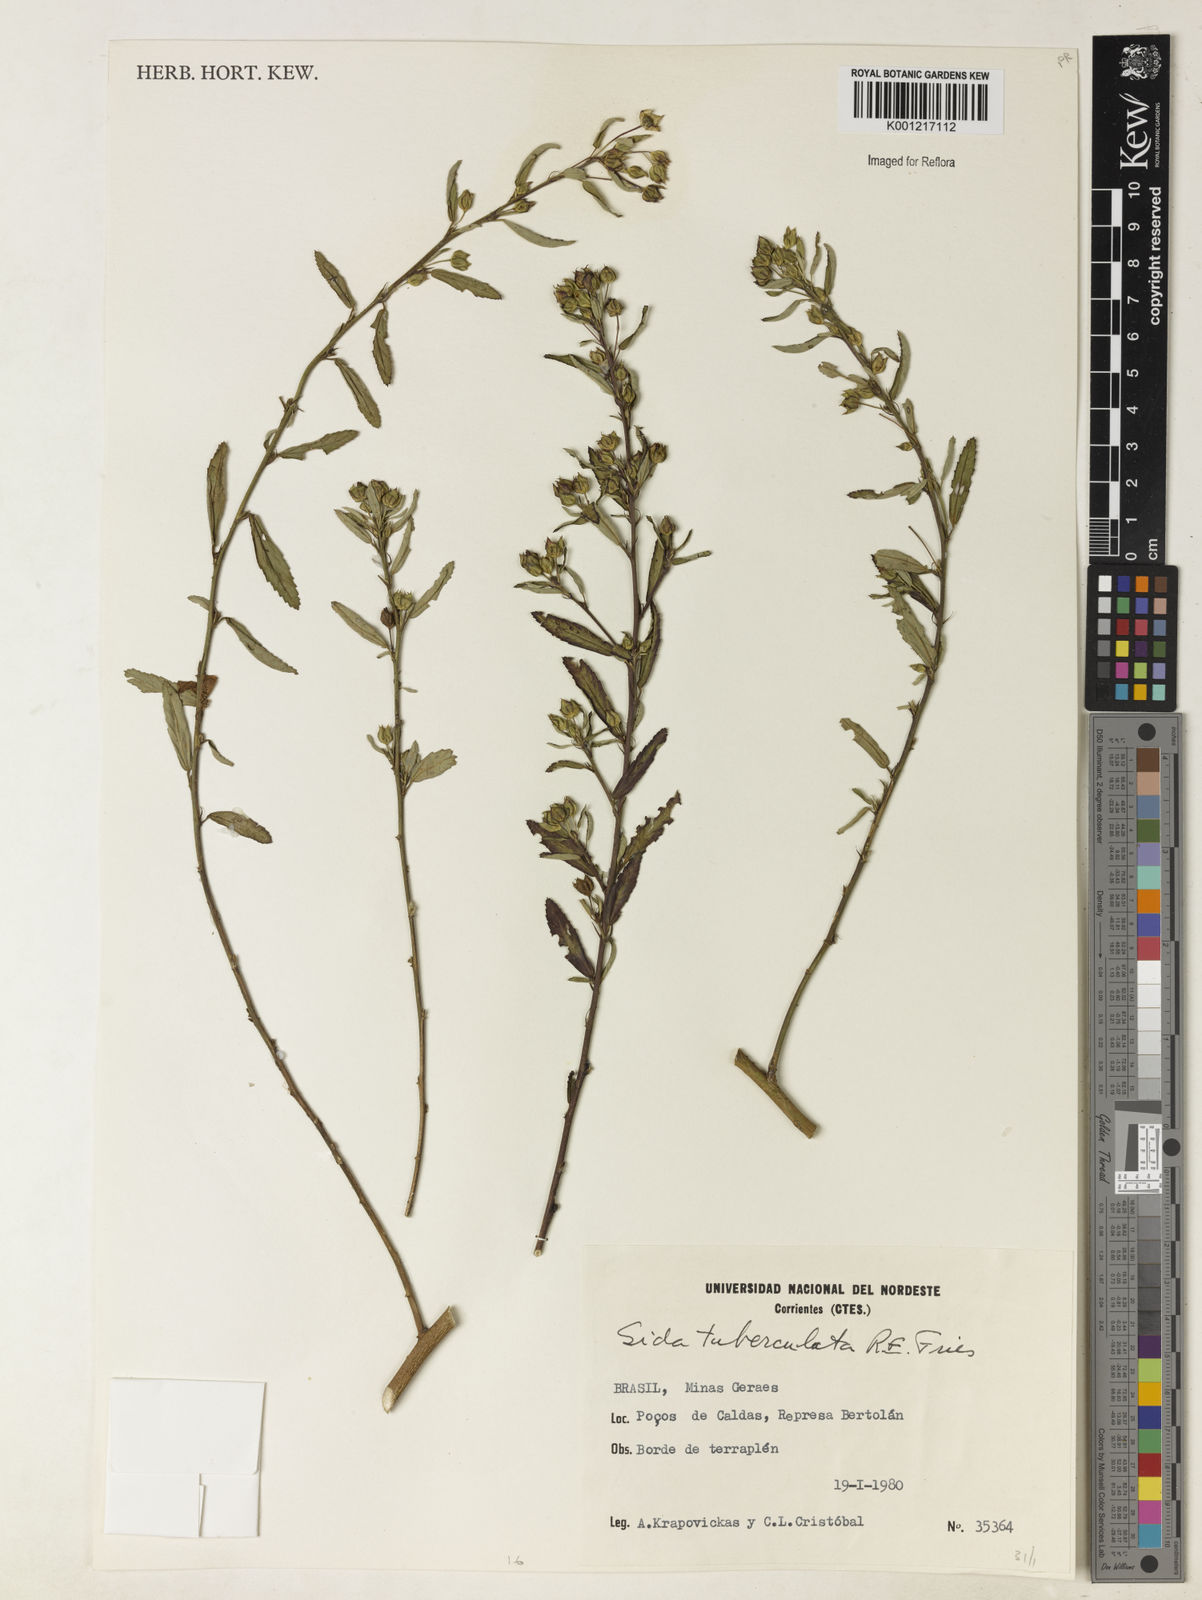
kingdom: Plantae
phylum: Tracheophyta
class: Magnoliopsida
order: Malvales
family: Malvaceae
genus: Sida
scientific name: Sida tuberculata
